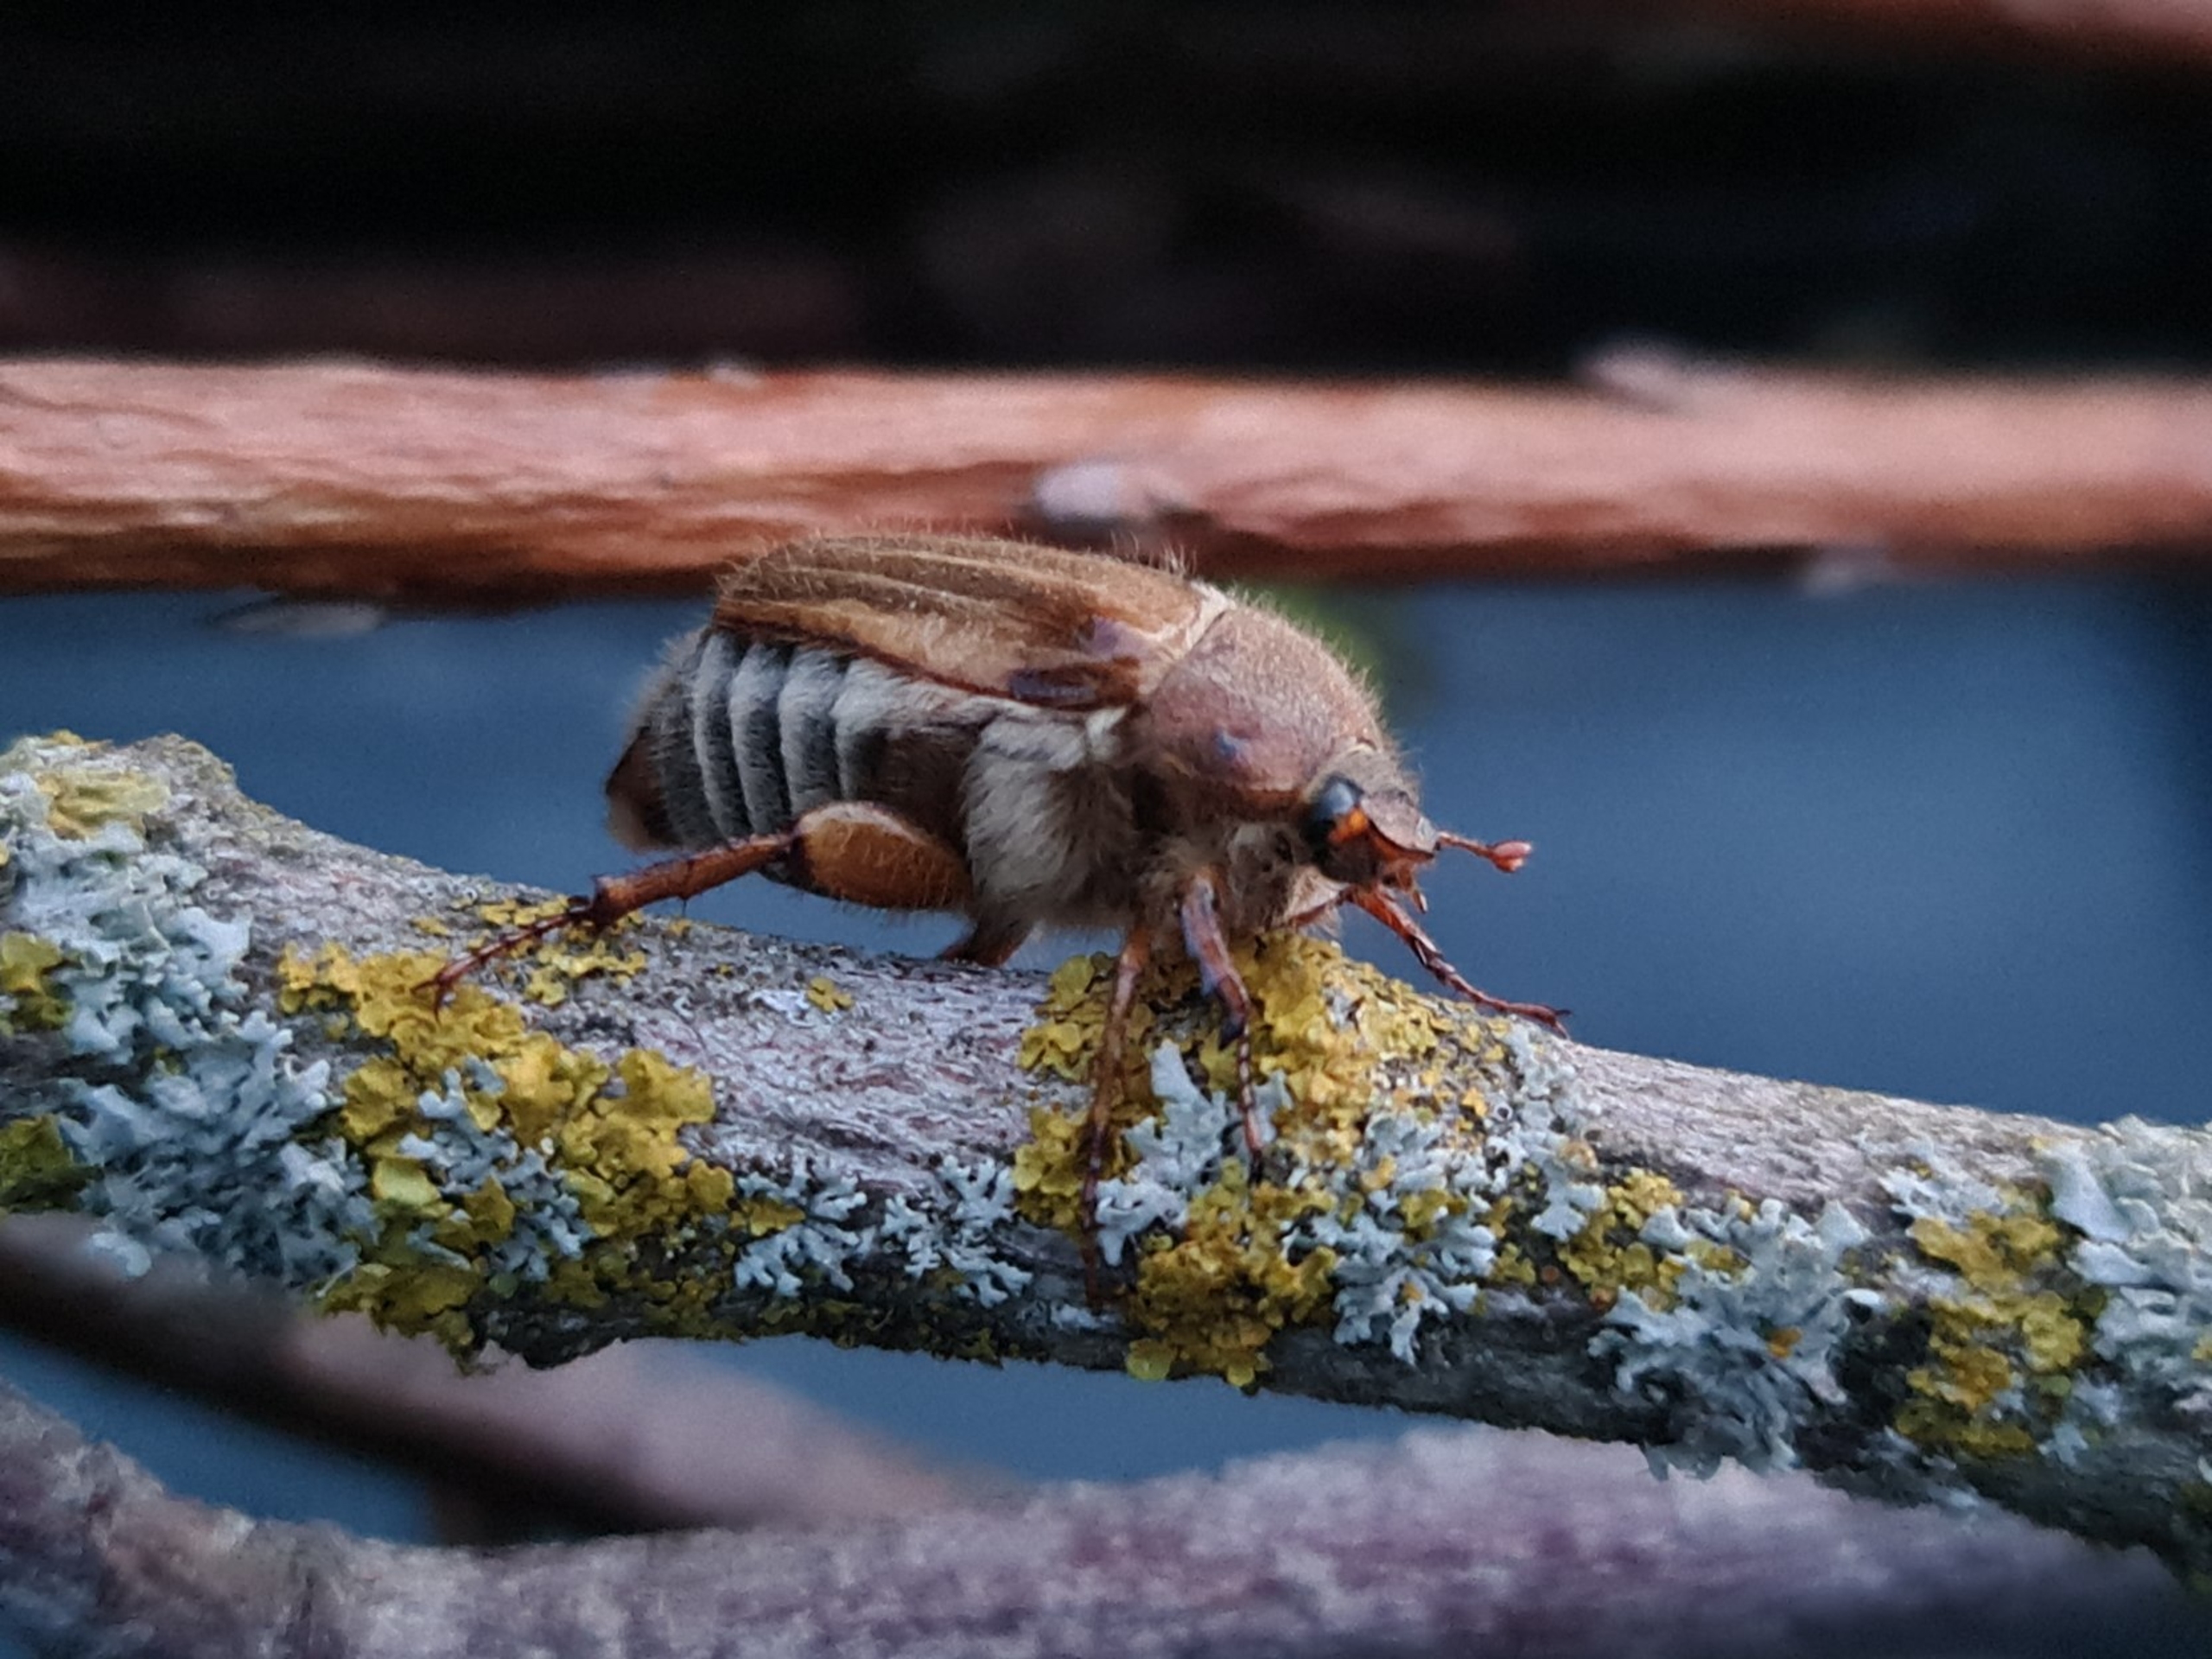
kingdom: Animalia
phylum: Arthropoda
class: Insecta
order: Coleoptera
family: Scarabaeidae
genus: Amphimallon
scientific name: Amphimallon solstitiale
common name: Sankthansoldenborre
